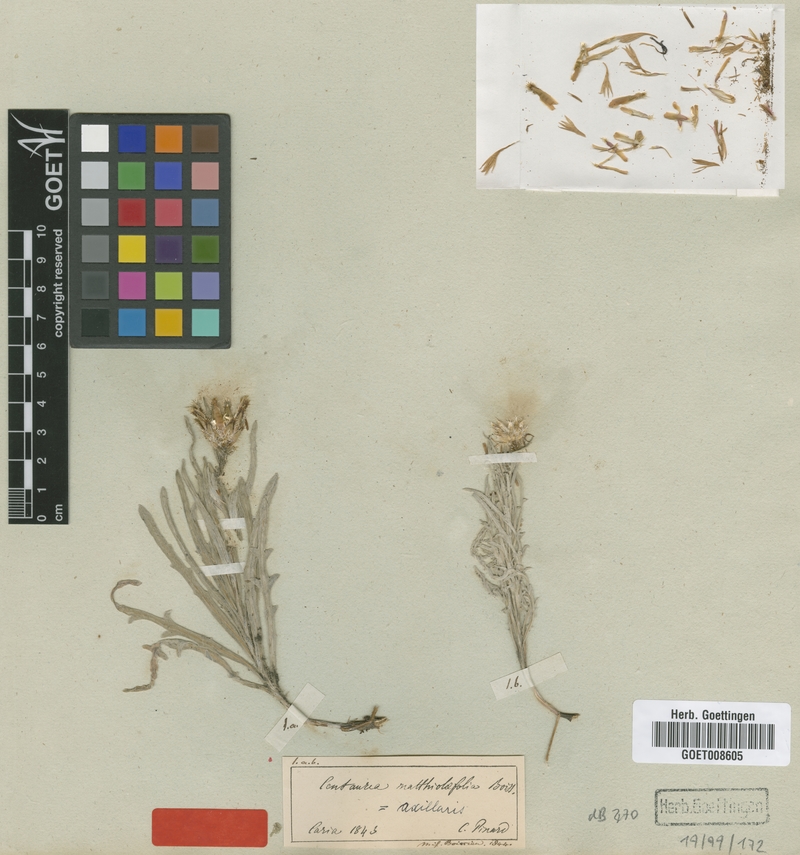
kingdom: Plantae
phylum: Tracheophyta
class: Magnoliopsida
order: Asterales
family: Asteraceae
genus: Centaurea
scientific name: Centaurea matthiolifolia
